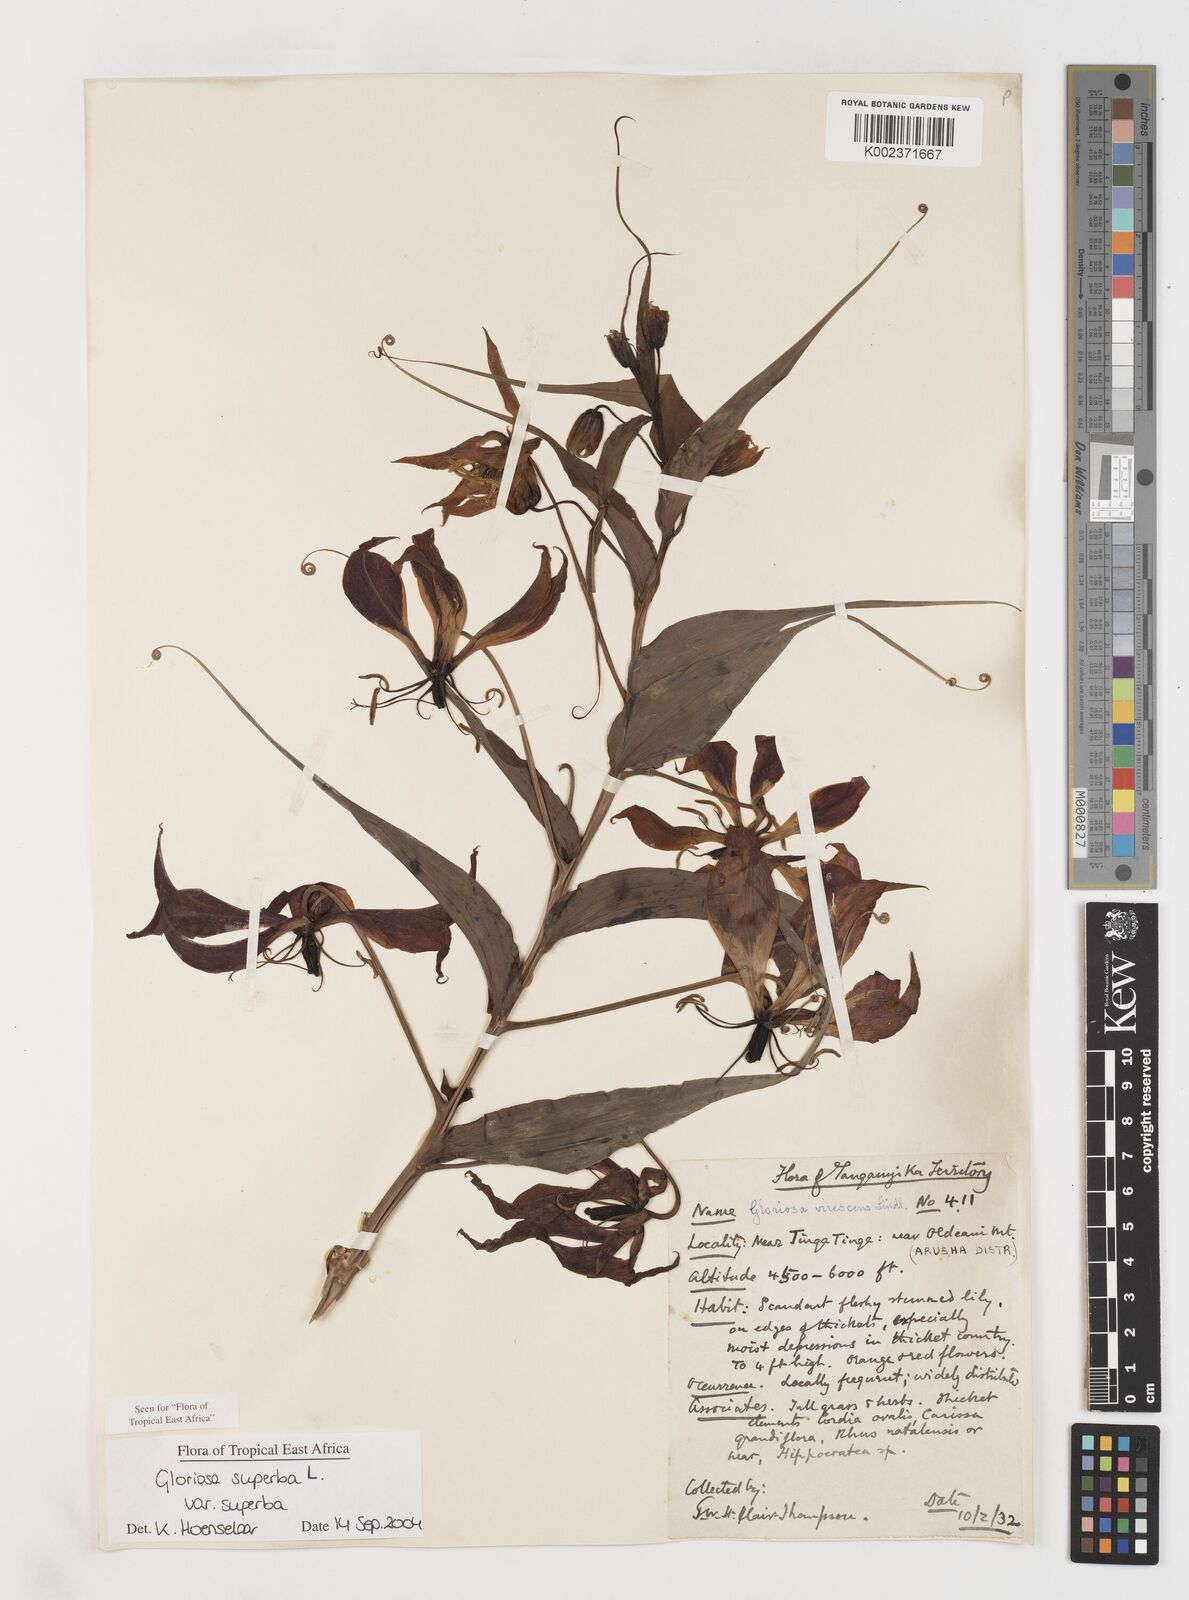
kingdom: Plantae
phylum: Tracheophyta
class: Liliopsida
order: Liliales
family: Colchicaceae
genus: Gloriosa
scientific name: Gloriosa simplex
